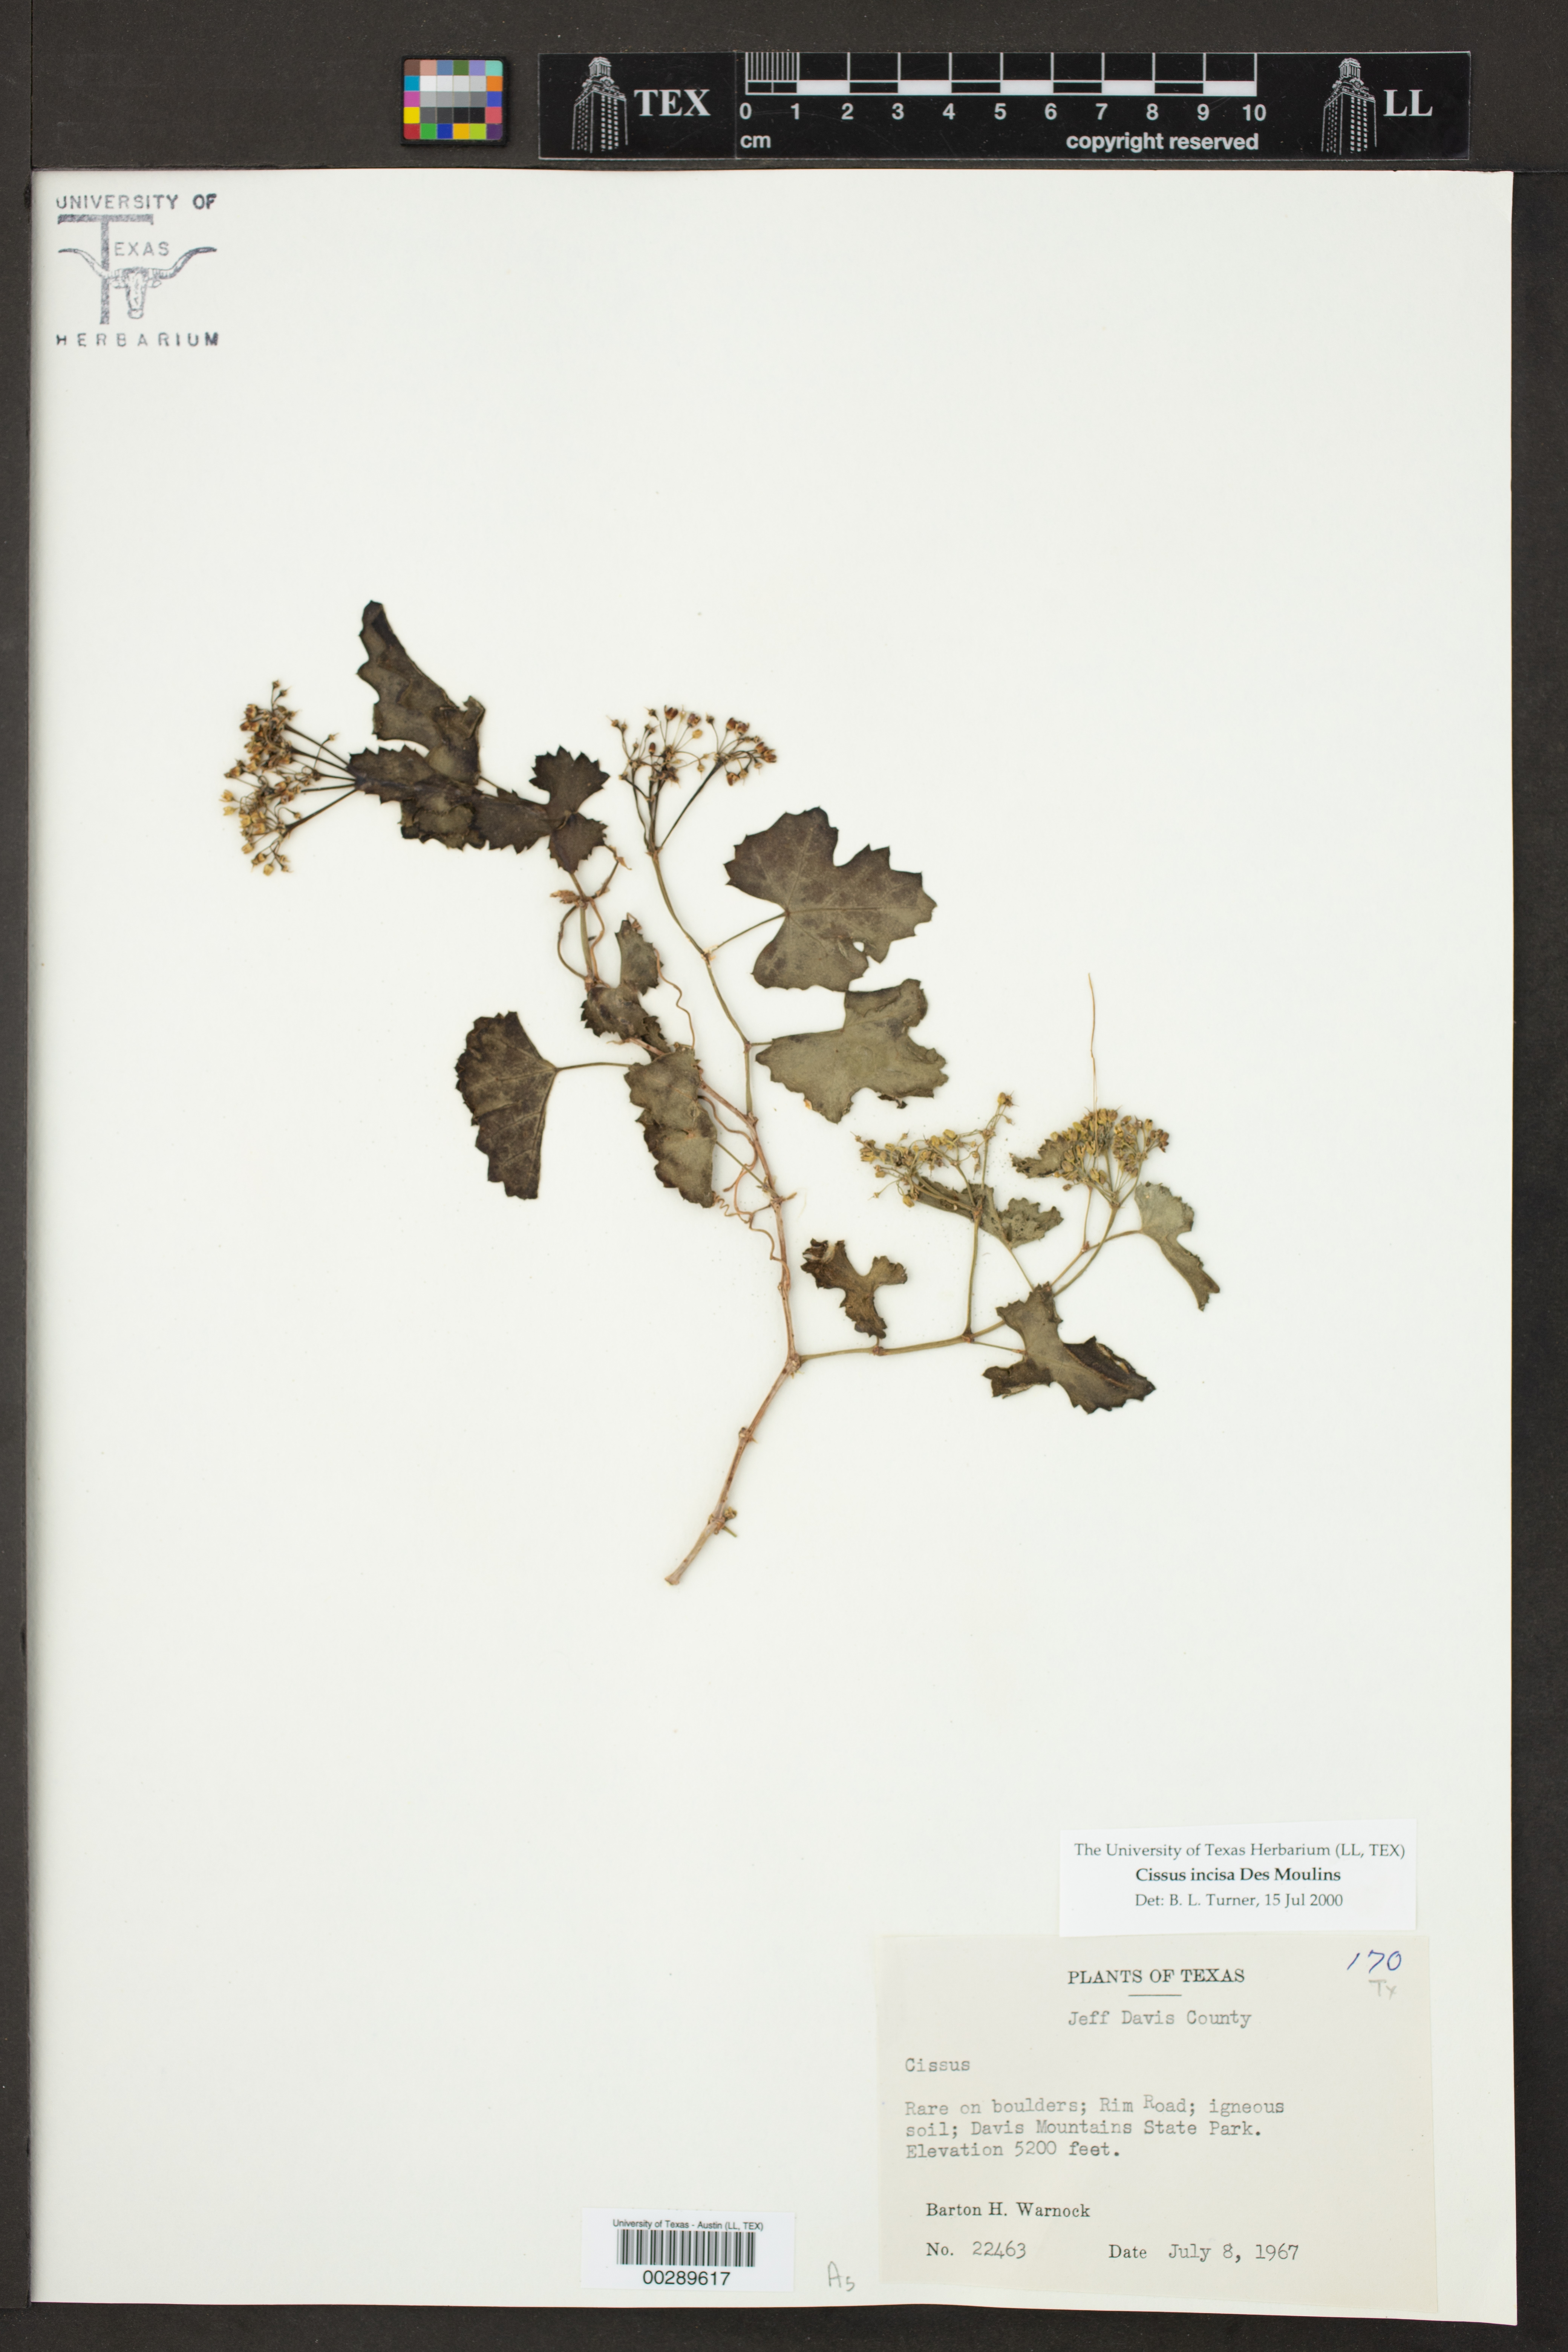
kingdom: Plantae
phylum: Tracheophyta
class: Magnoliopsida
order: Vitales
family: Vitaceae
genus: Cissus
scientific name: Cissus trifoliata
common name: Vine-sorrel
